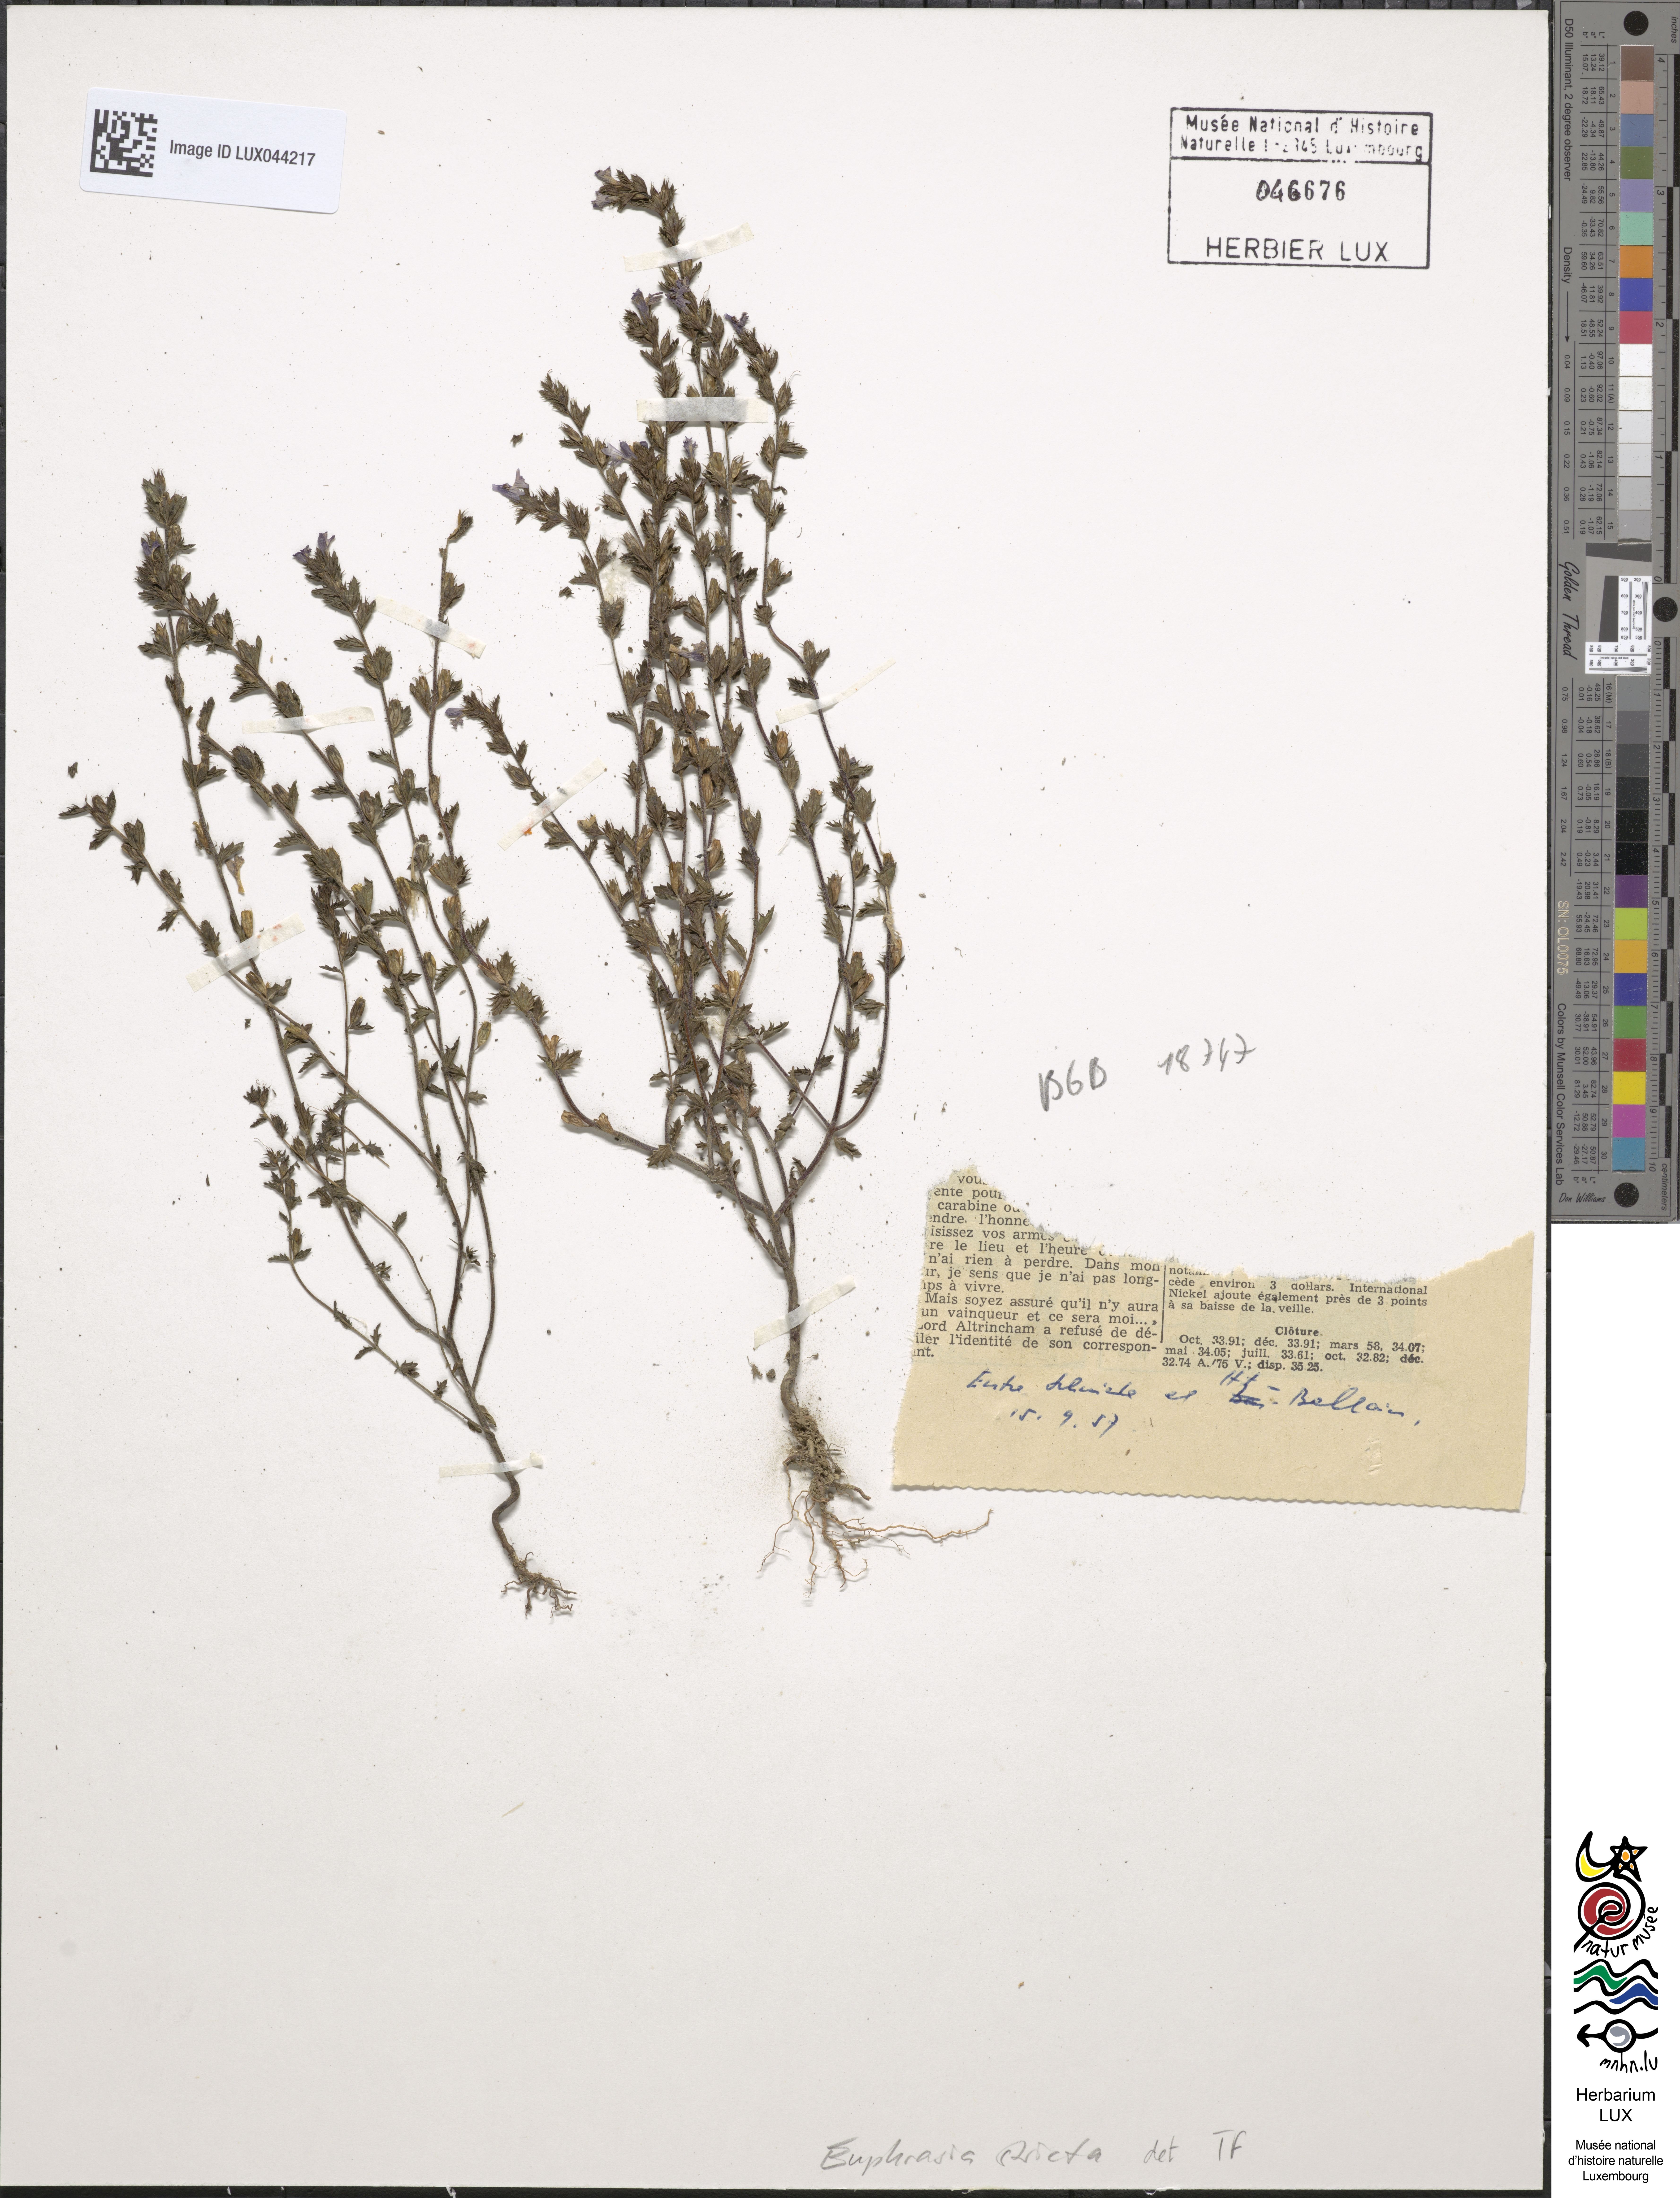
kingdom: Plantae
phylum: Tracheophyta
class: Magnoliopsida
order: Lamiales
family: Orobanchaceae
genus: Euphrasia
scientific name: Euphrasia stricta
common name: Drug eyebright
